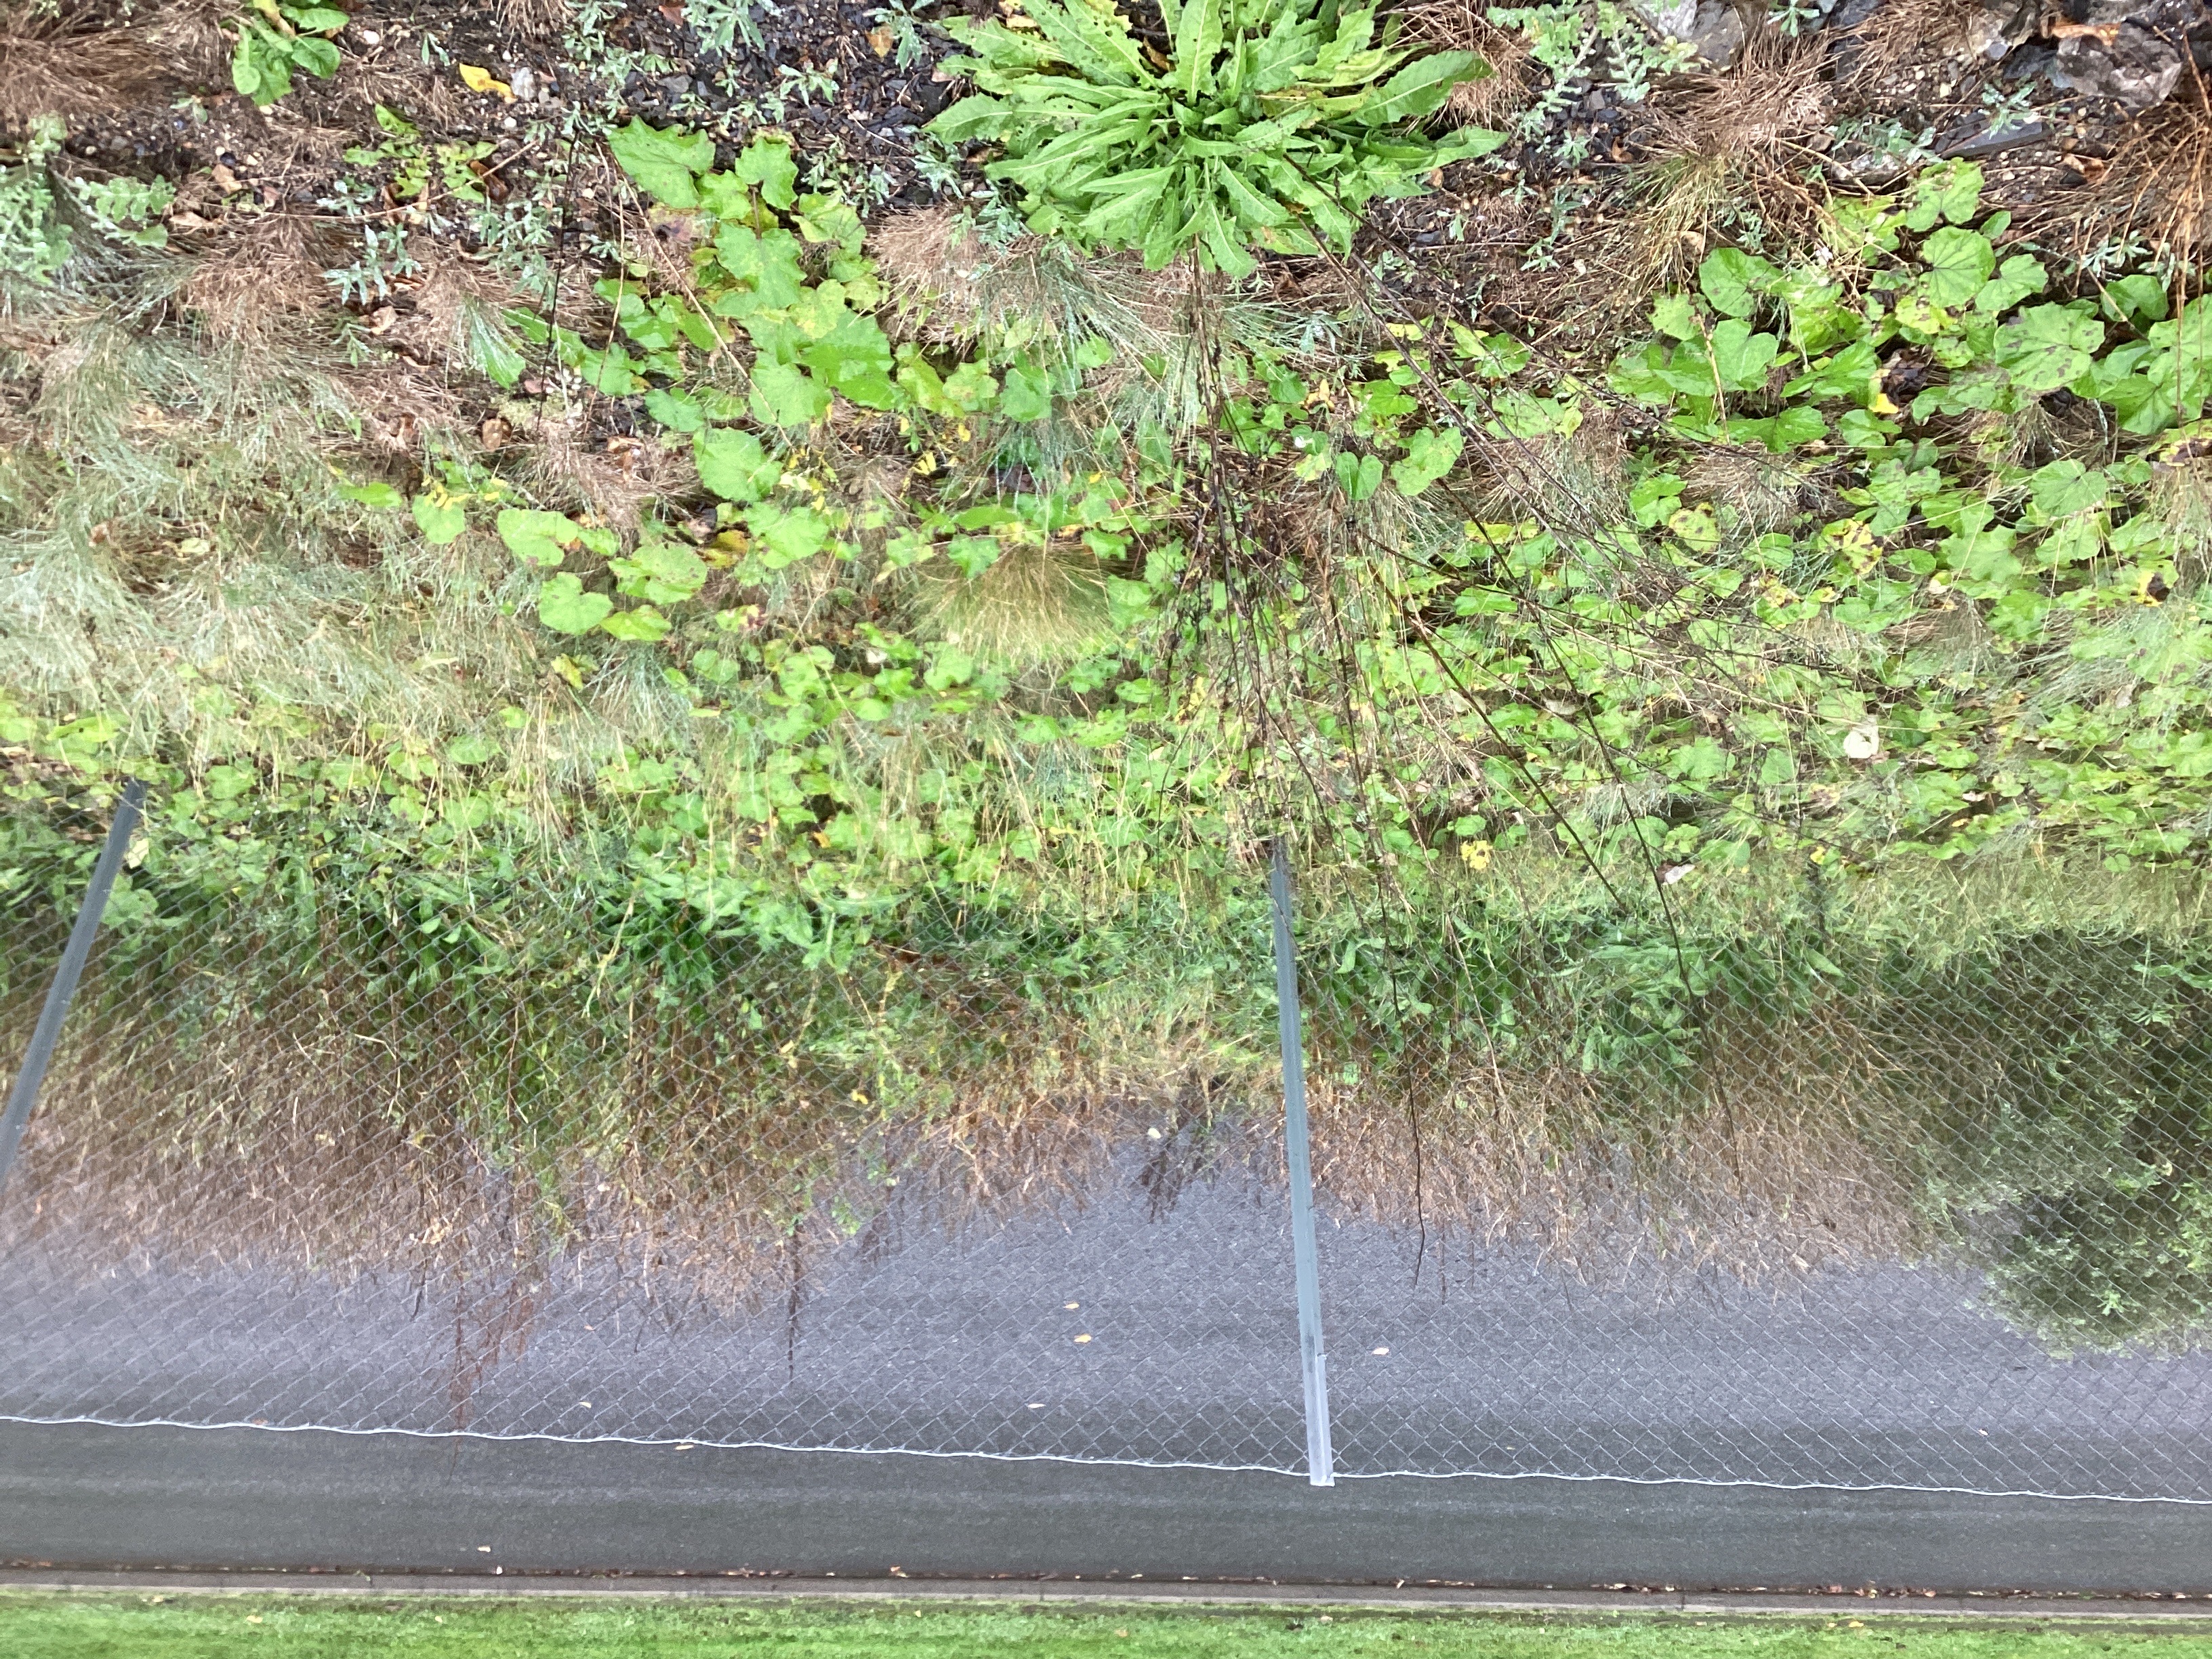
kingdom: Plantae
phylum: Tracheophyta
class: Magnoliopsida
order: Brassicales
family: Brassicaceae
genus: Bunias
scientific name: Bunias orientalis
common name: russekål
